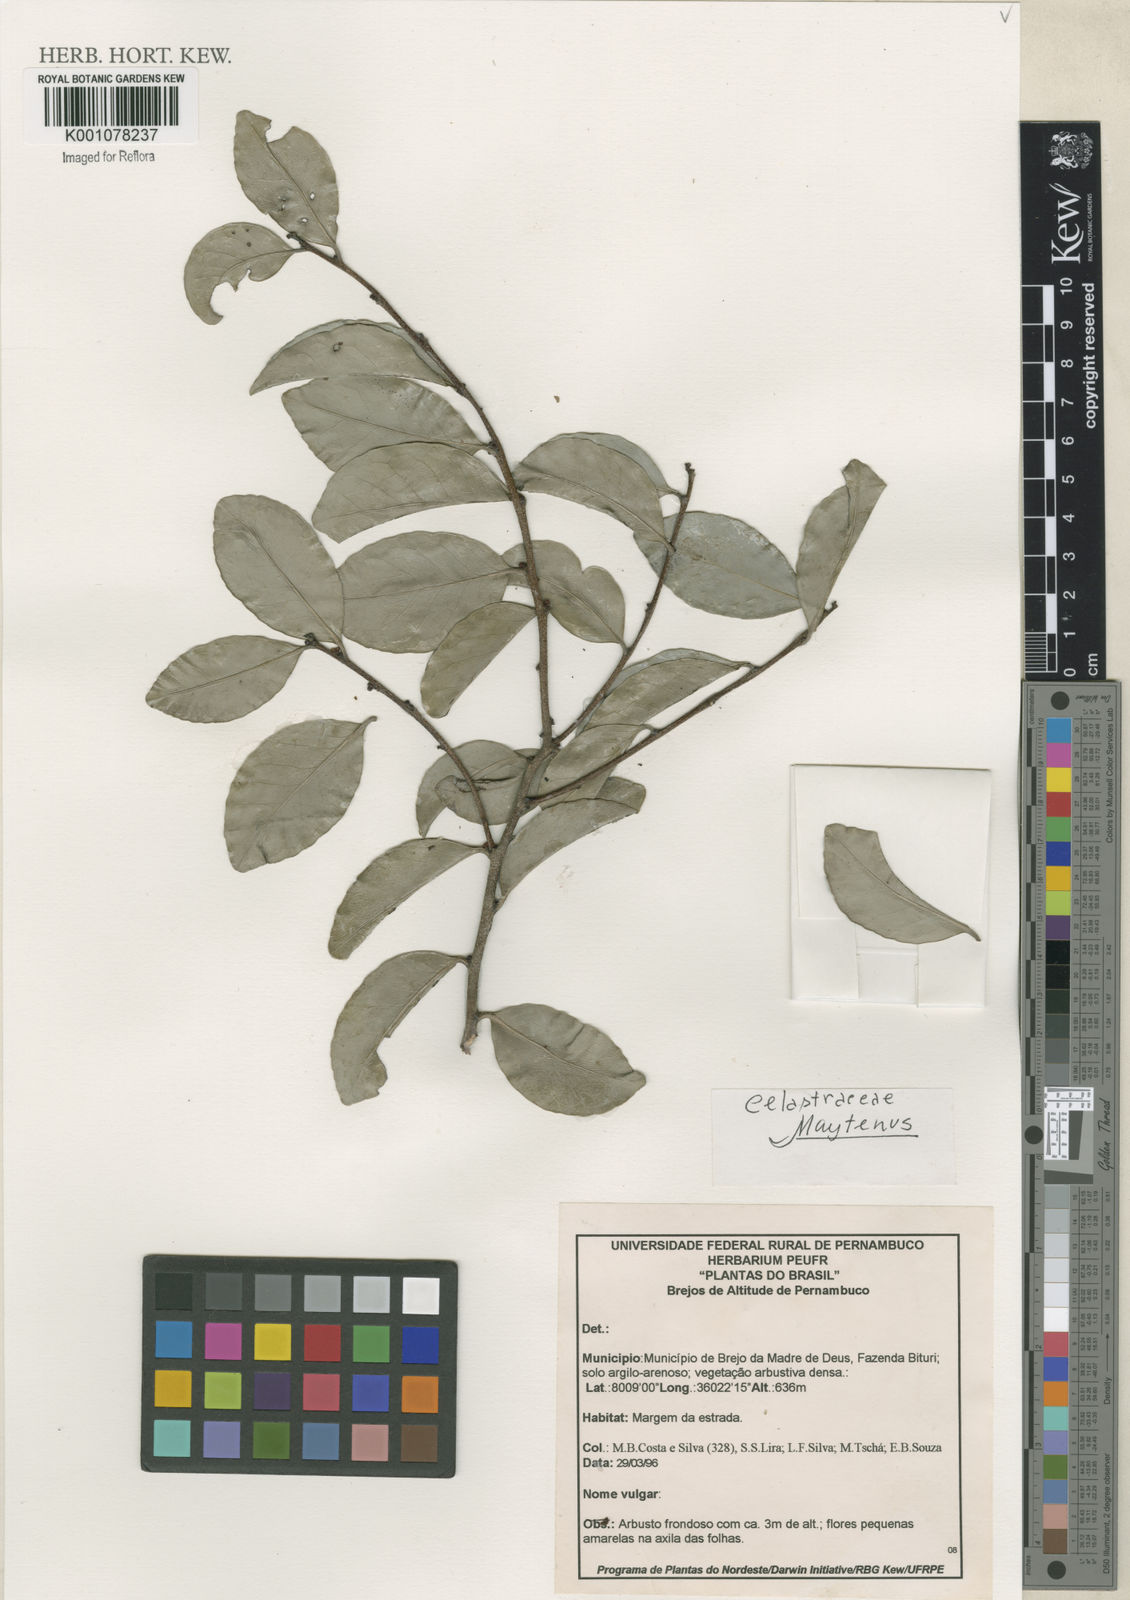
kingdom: Plantae
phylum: Tracheophyta
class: Magnoliopsida
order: Celastrales
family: Celastraceae
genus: Maytenus
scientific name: Maytenus
